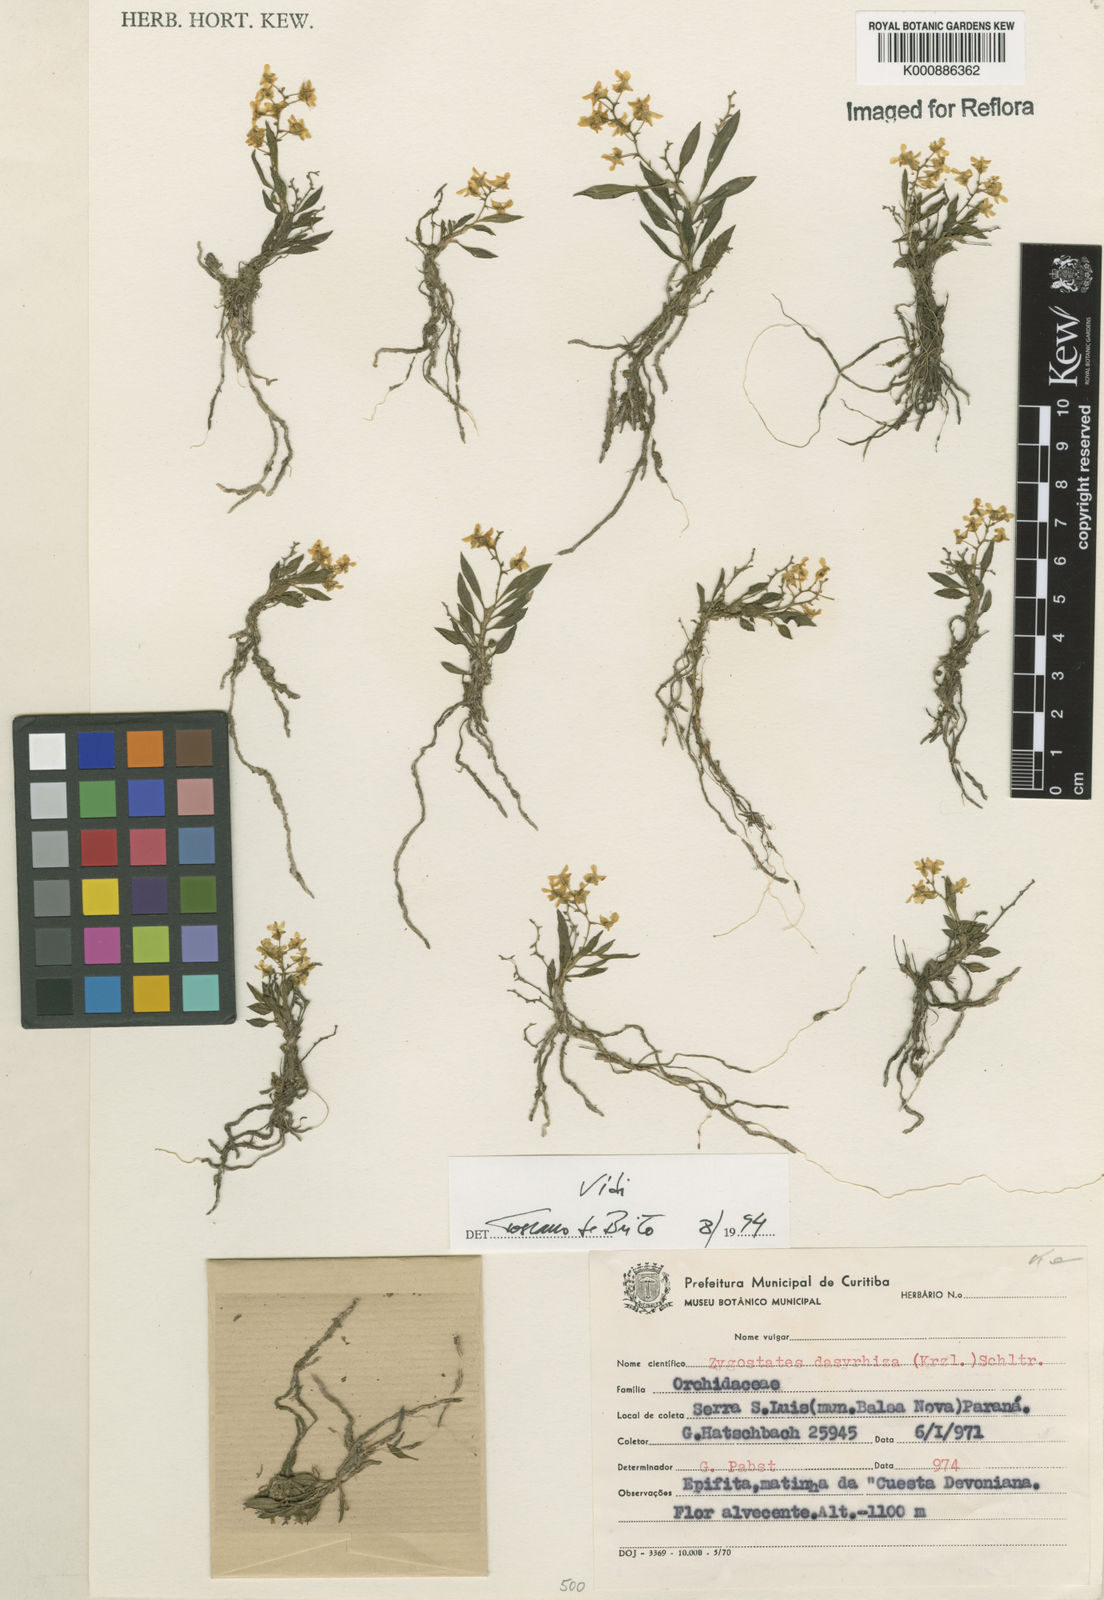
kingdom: Plantae
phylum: Tracheophyta
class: Liliopsida
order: Asparagales
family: Orchidaceae
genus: Zygostates
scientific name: Zygostates dasyrhiza
